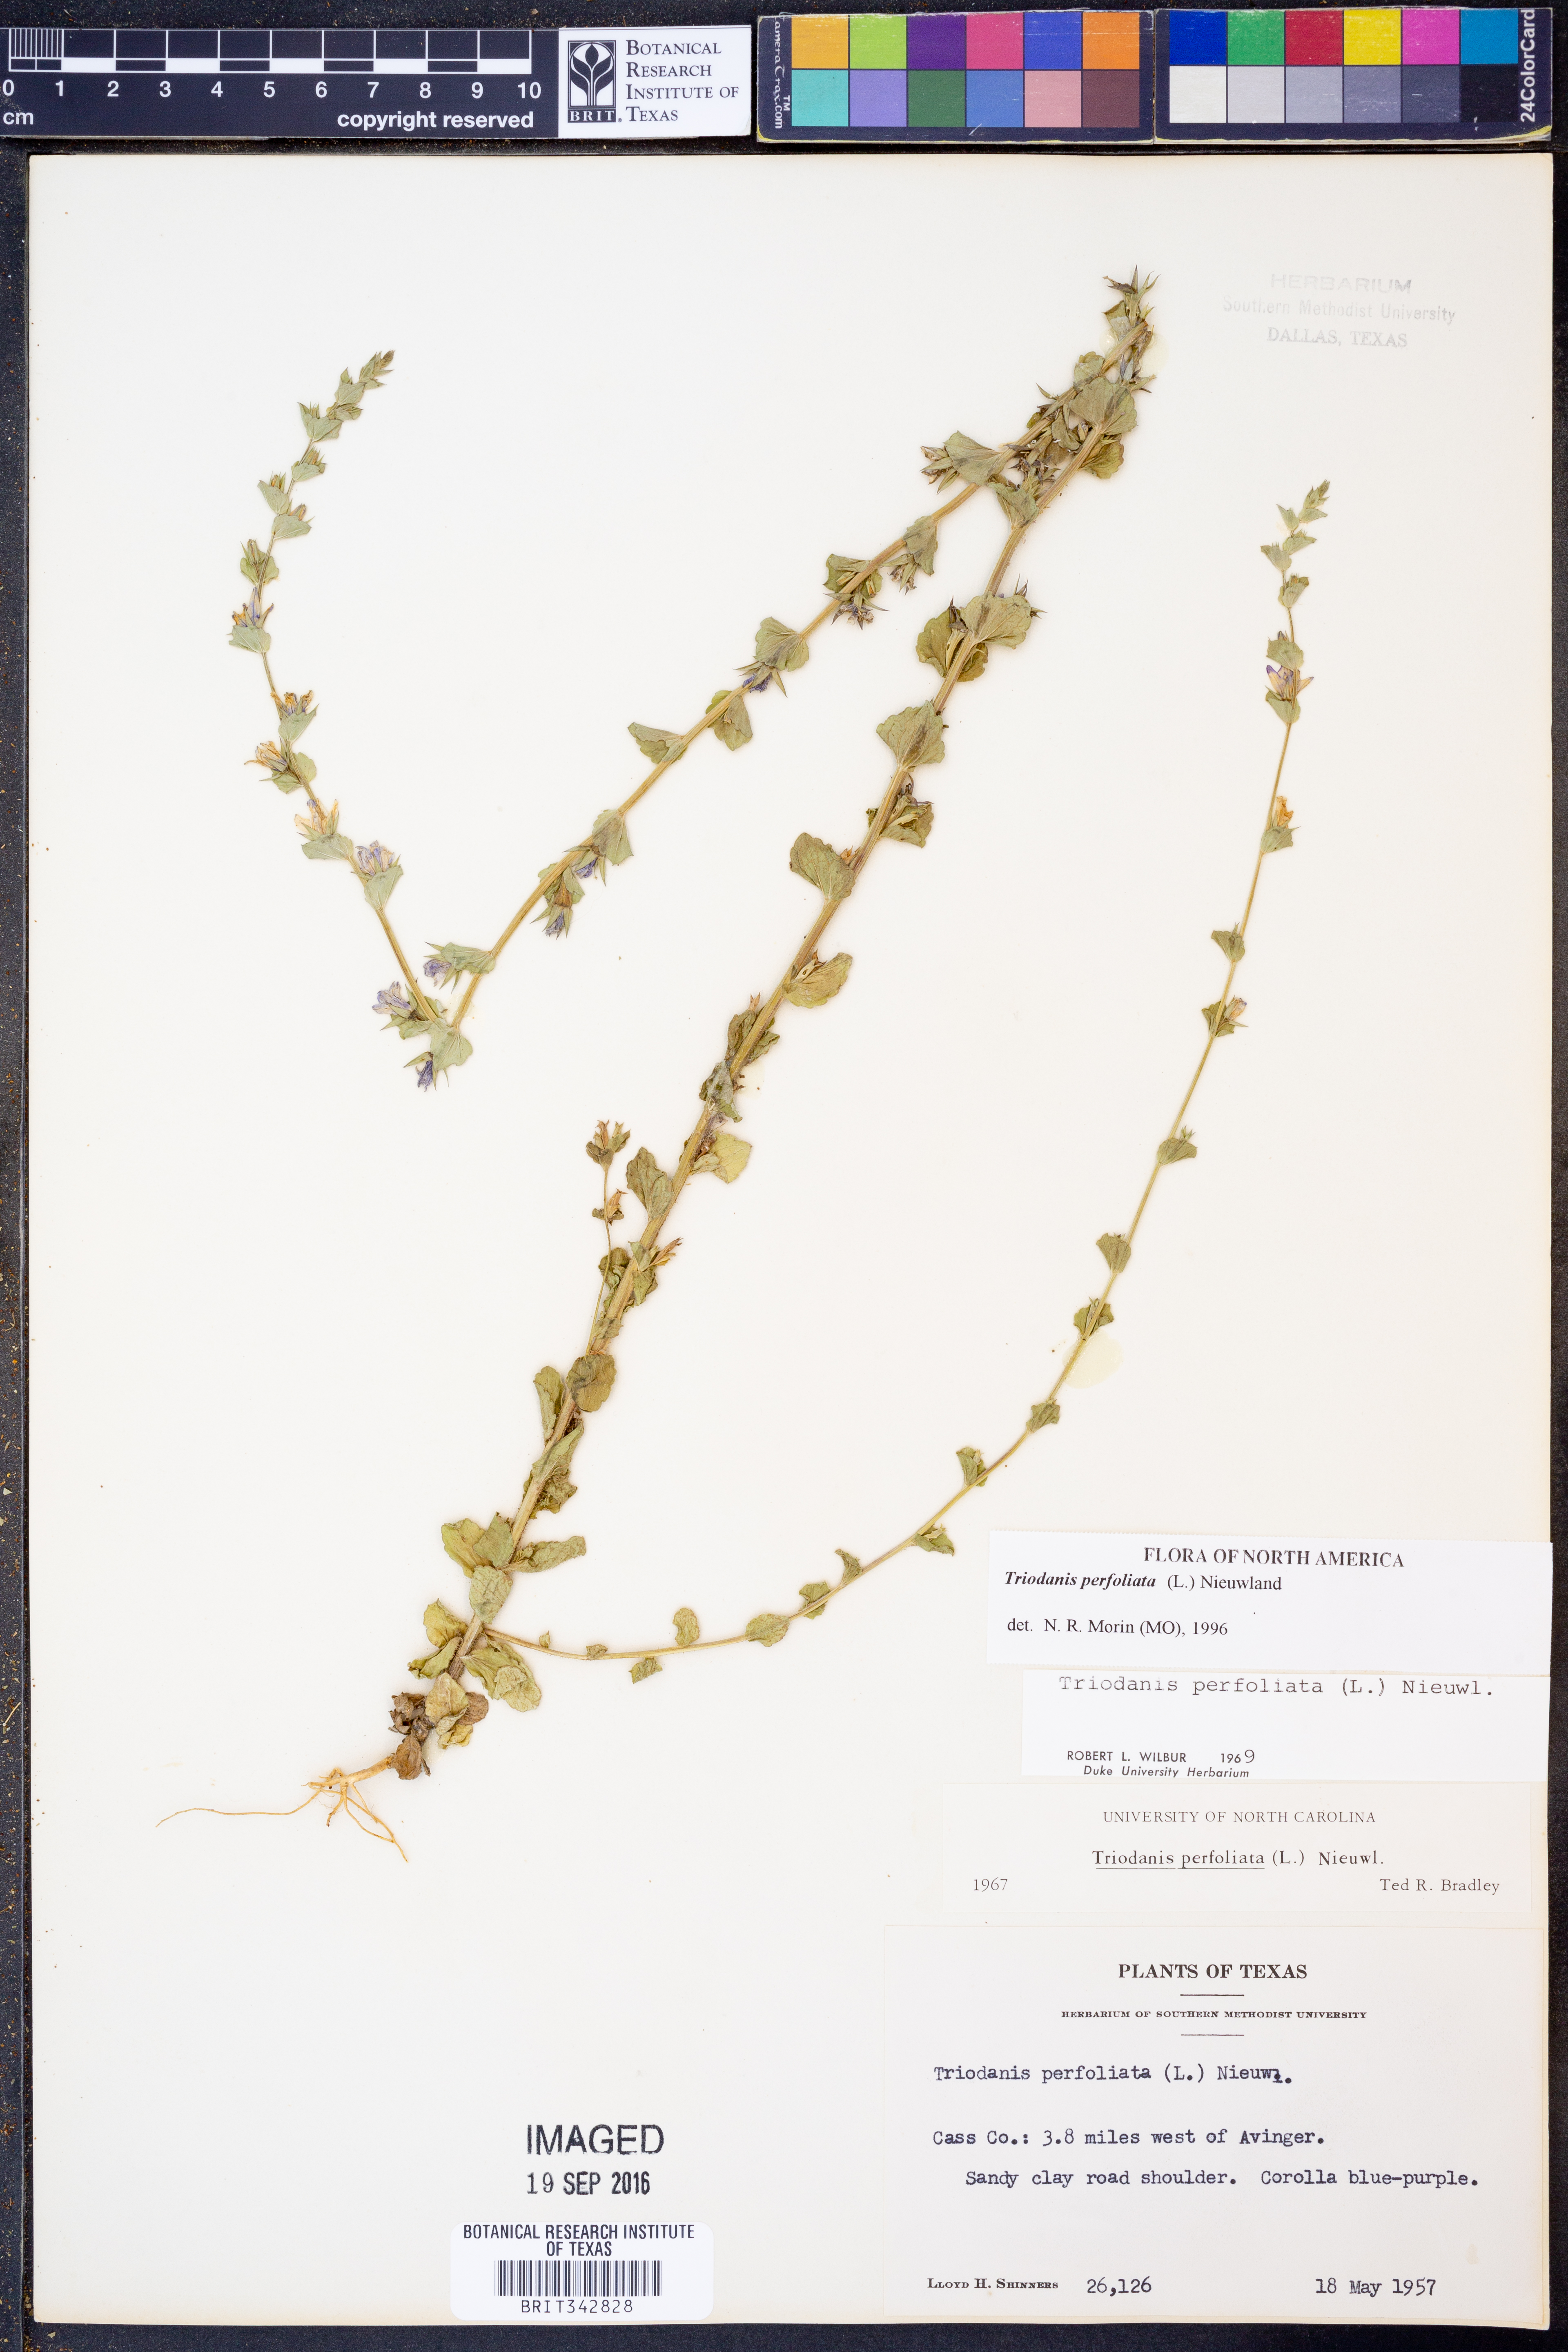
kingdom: Plantae
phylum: Tracheophyta
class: Magnoliopsida
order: Asterales
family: Campanulaceae
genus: Triodanis
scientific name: Triodanis perfoliata
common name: Clasping venus' looking-glass
